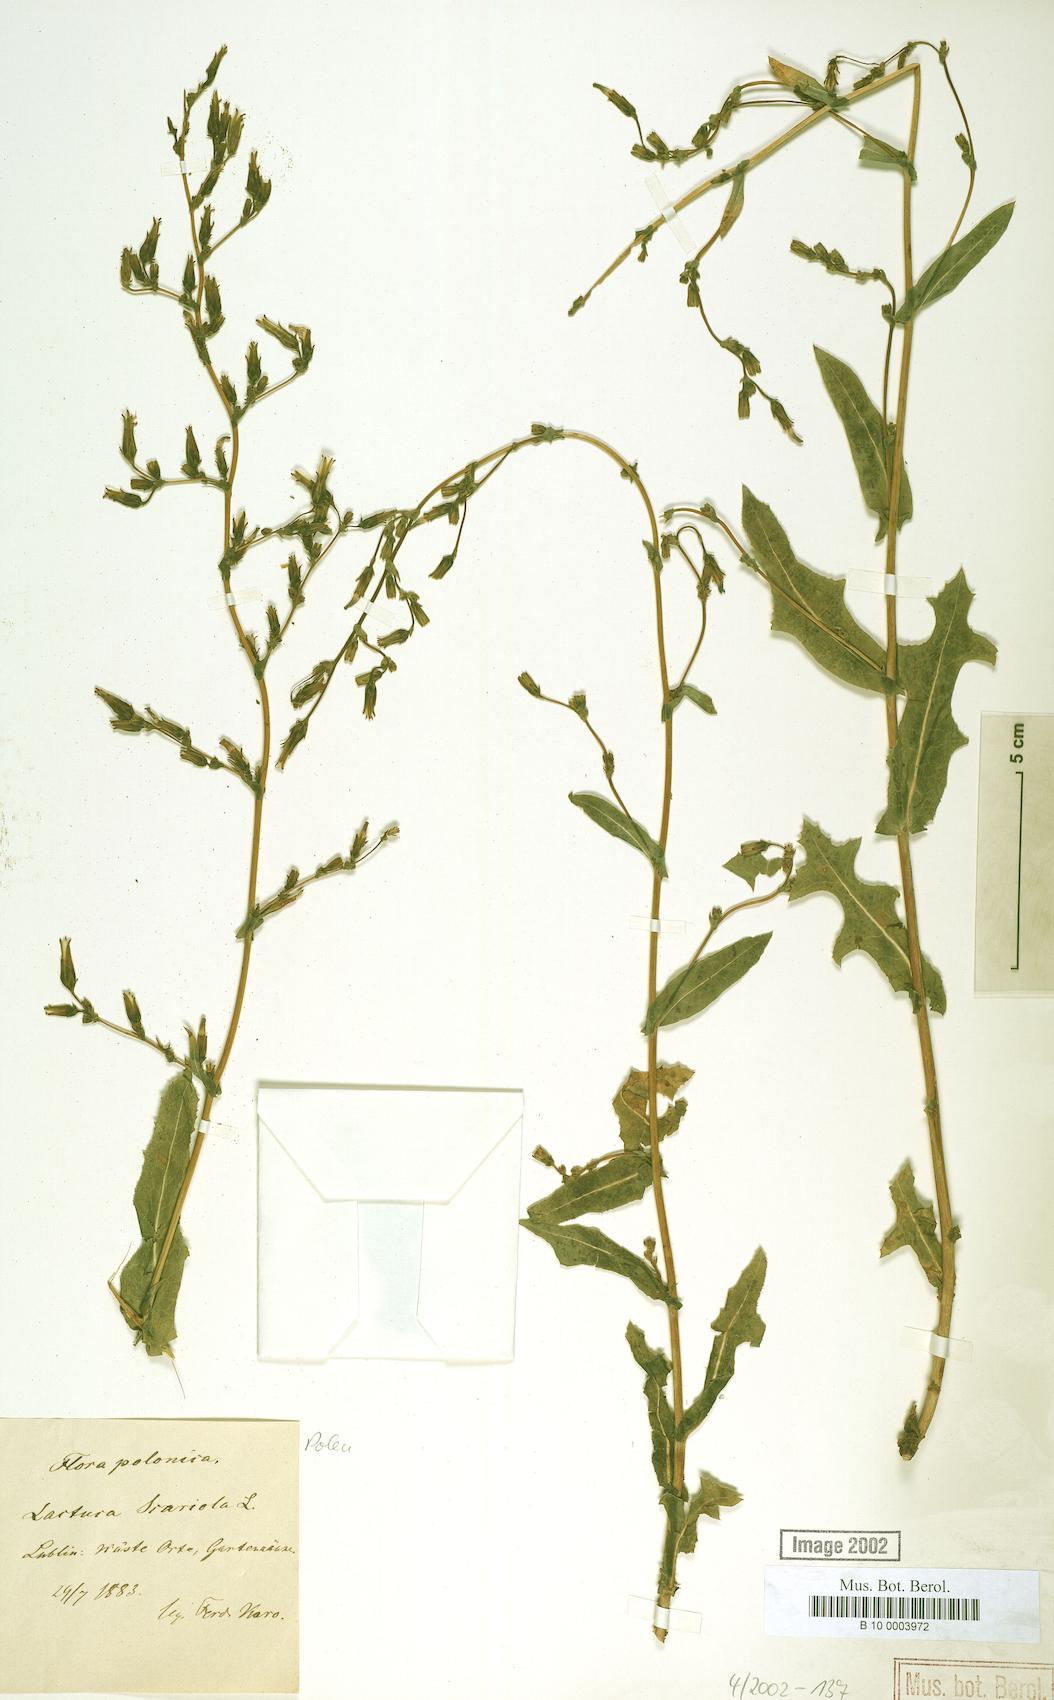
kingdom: Plantae
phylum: Tracheophyta
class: Magnoliopsida
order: Asterales
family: Asteraceae
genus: Lactuca
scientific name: Lactuca serriola
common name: Prickly lettuce
